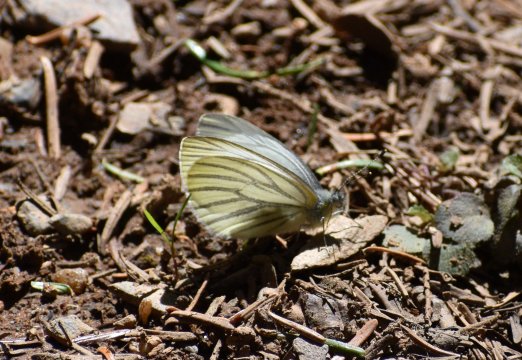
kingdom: Animalia
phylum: Arthropoda
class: Insecta
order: Lepidoptera
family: Pieridae
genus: Pieris
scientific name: Pieris oleracea
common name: Mustard White
